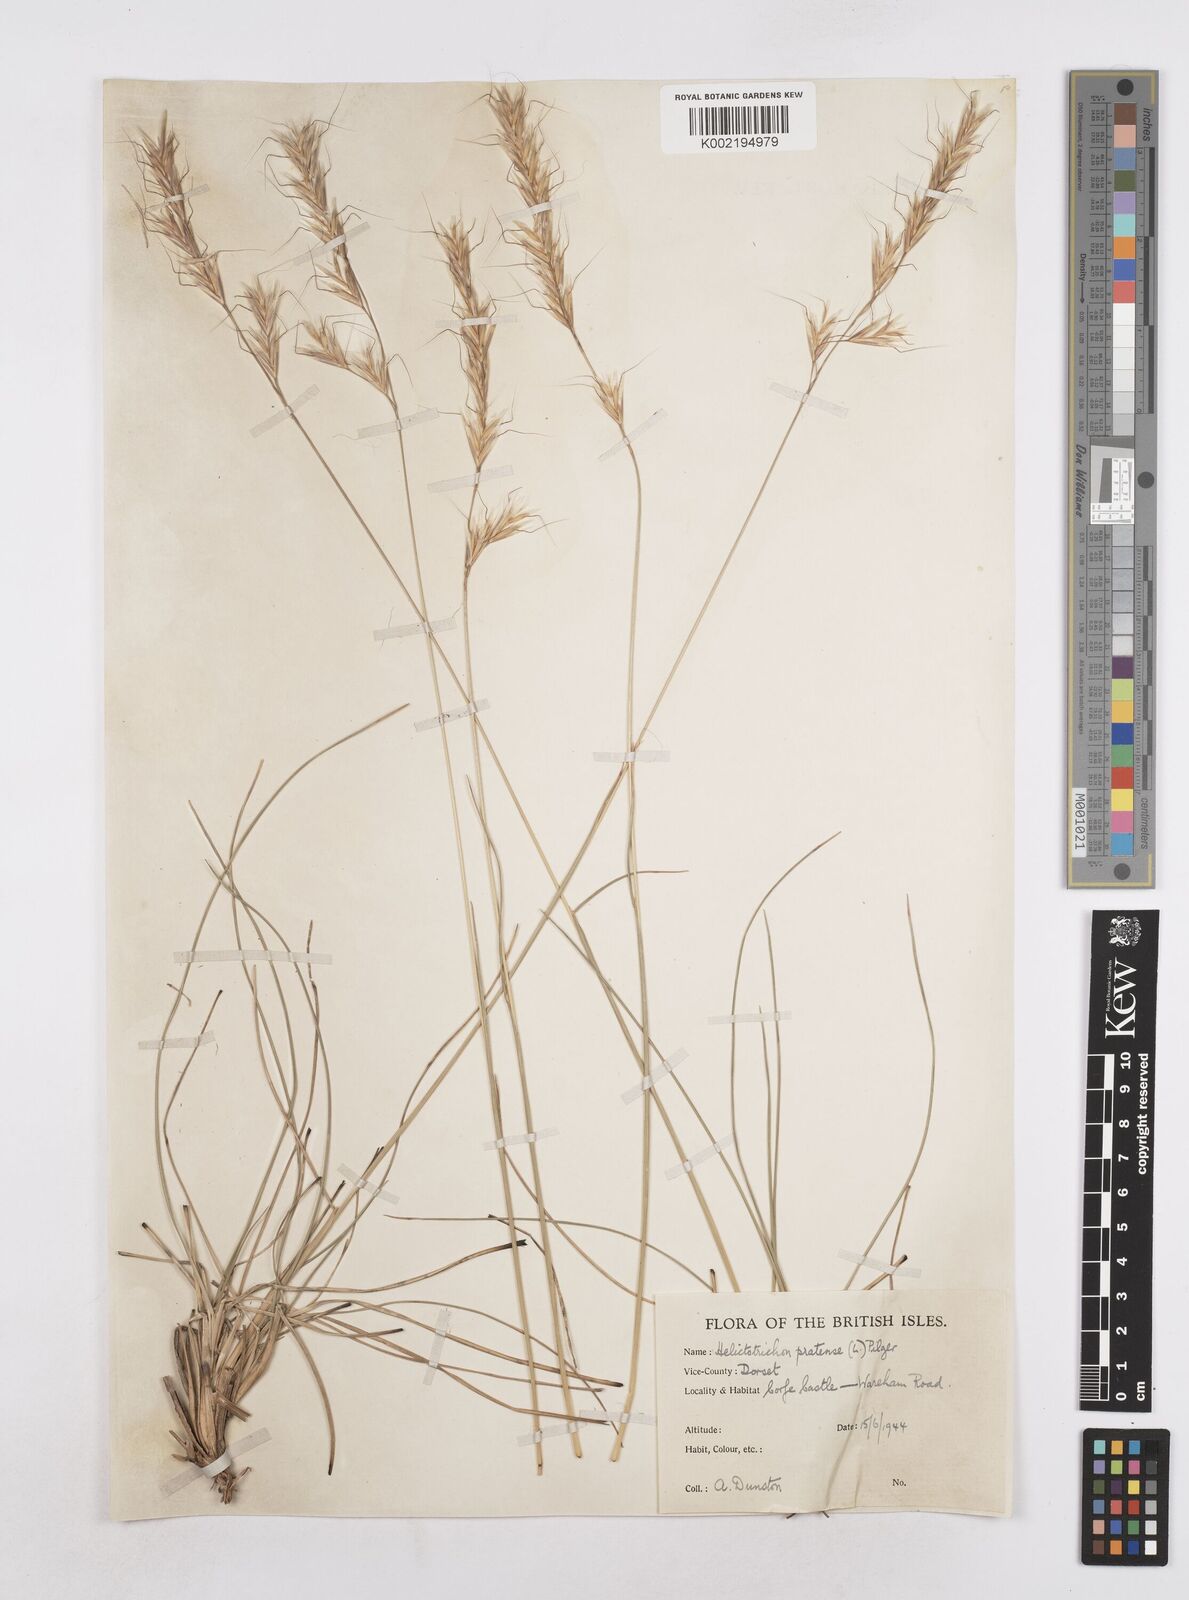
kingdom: Plantae
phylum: Tracheophyta
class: Liliopsida
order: Poales
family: Poaceae
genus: Helictochloa
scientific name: Helictochloa pratensis
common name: Meadow oat grass
